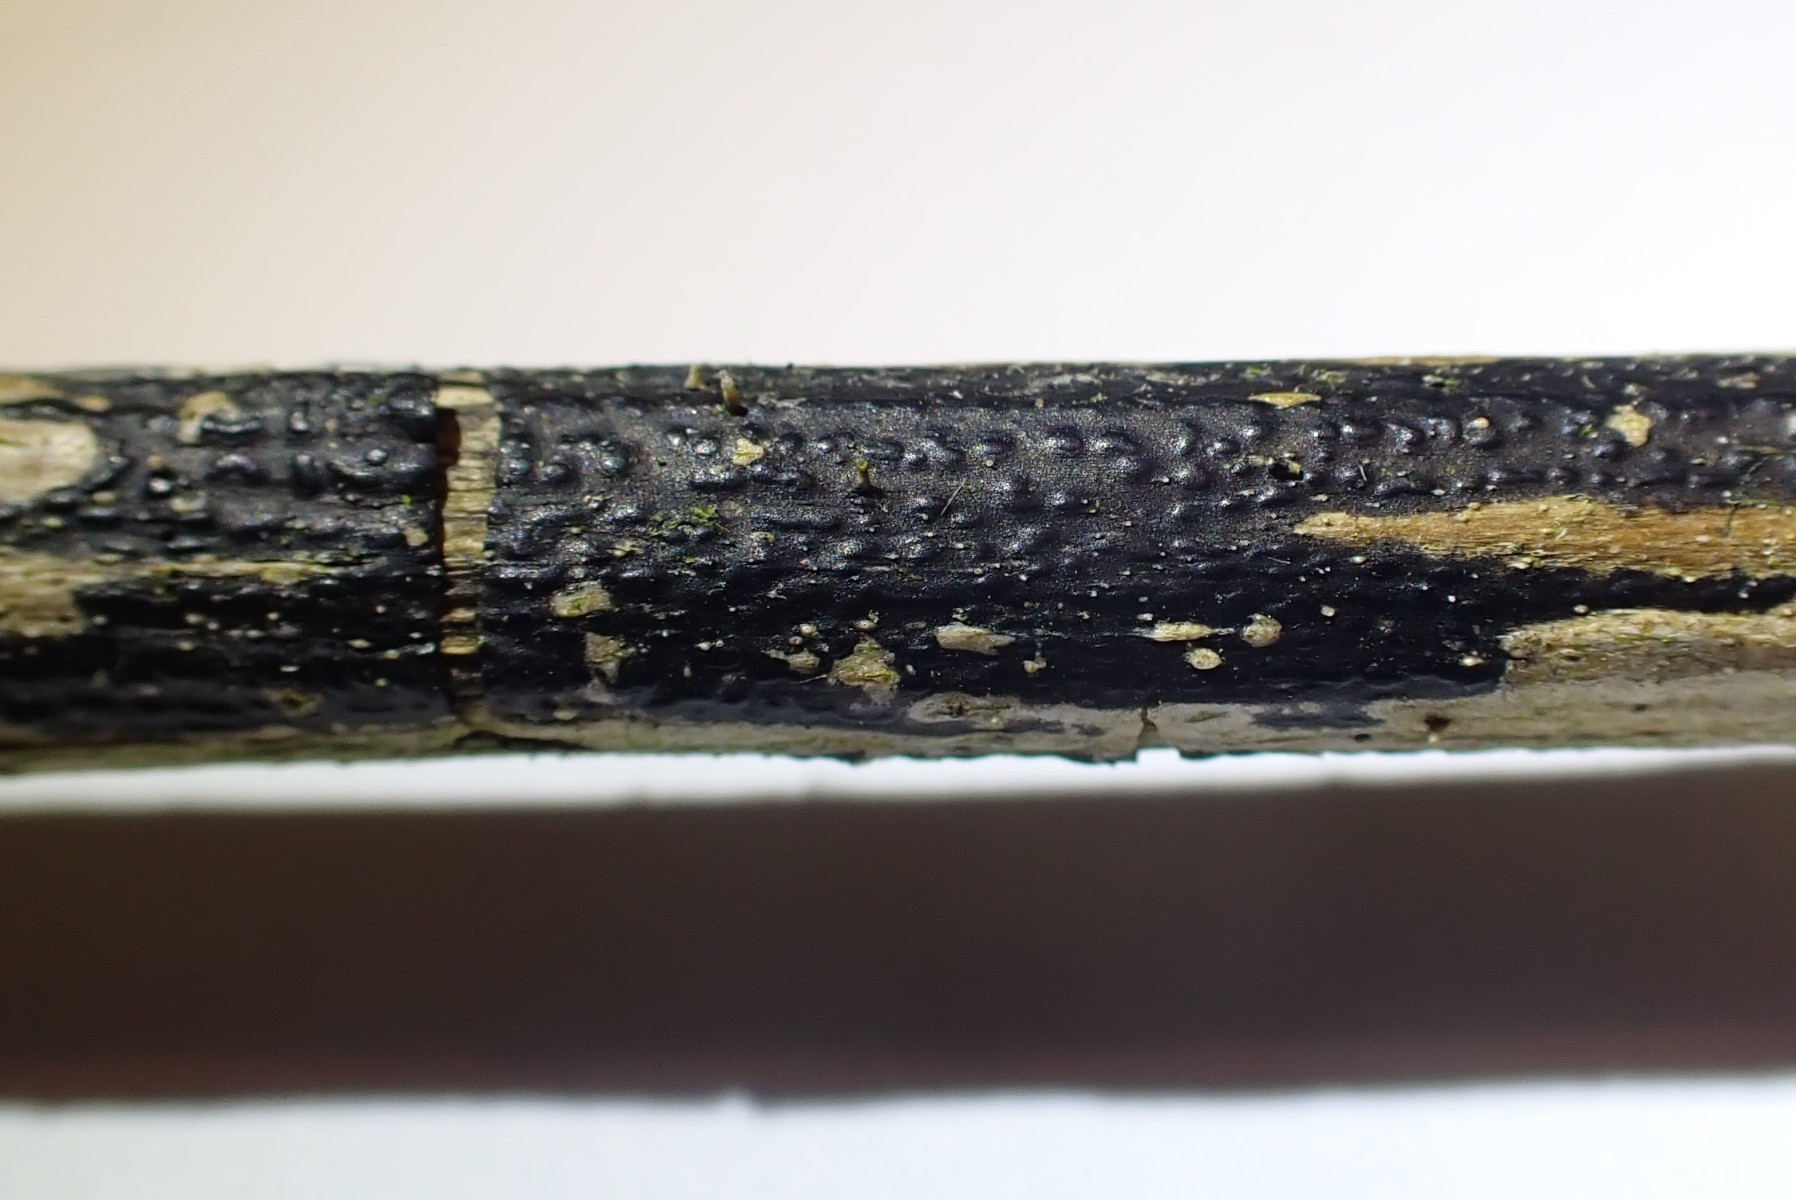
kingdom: Fungi
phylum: Ascomycota
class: Sordariomycetes
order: Diaporthales
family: Diaporthaceae
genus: Diaporthopsis
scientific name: Diaporthopsis urticae
